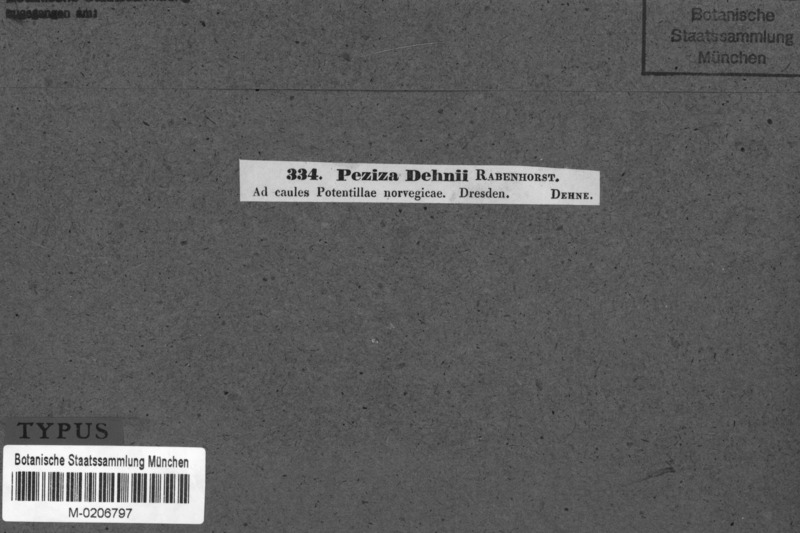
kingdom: Fungi
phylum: Ascomycota
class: Leotiomycetes
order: Helotiales
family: Drepanopezizaceae
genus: Leptotrochila
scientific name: Leptotrochila dehnii
